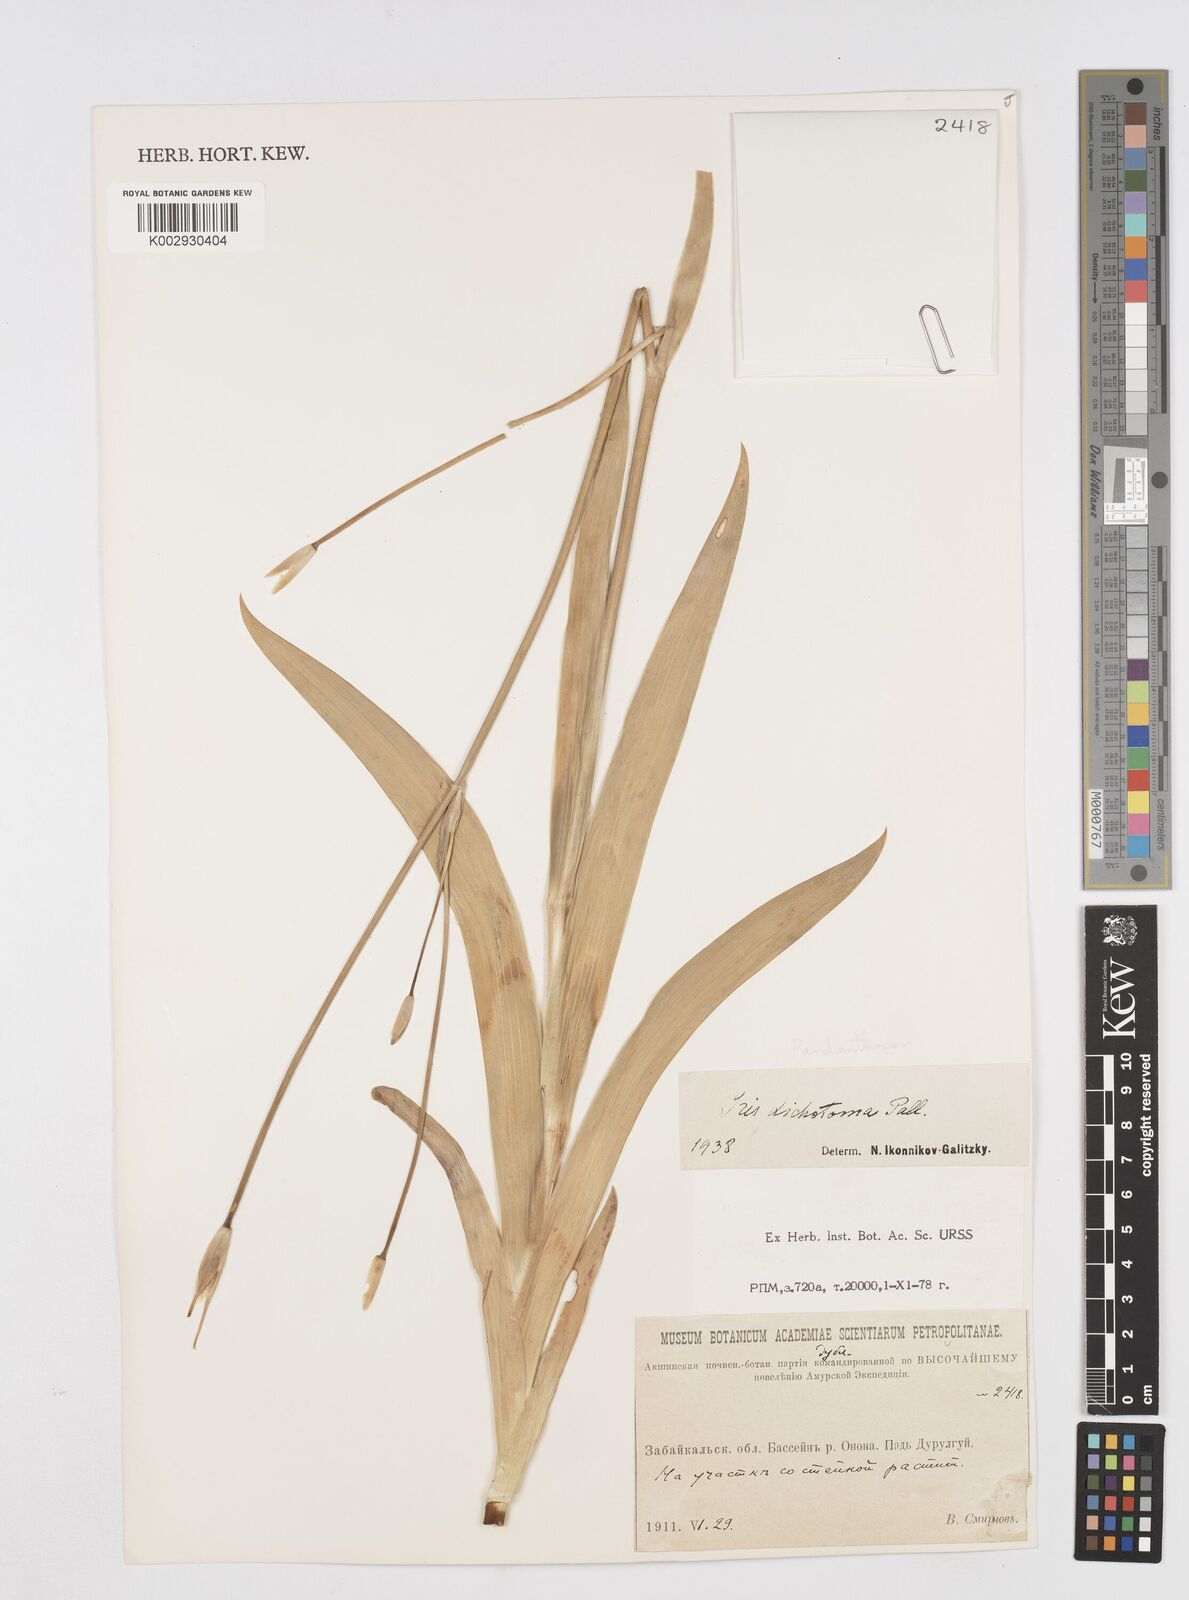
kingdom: Plantae
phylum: Tracheophyta
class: Liliopsida
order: Asparagales
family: Iridaceae
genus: Iris
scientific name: Iris dichotoma
